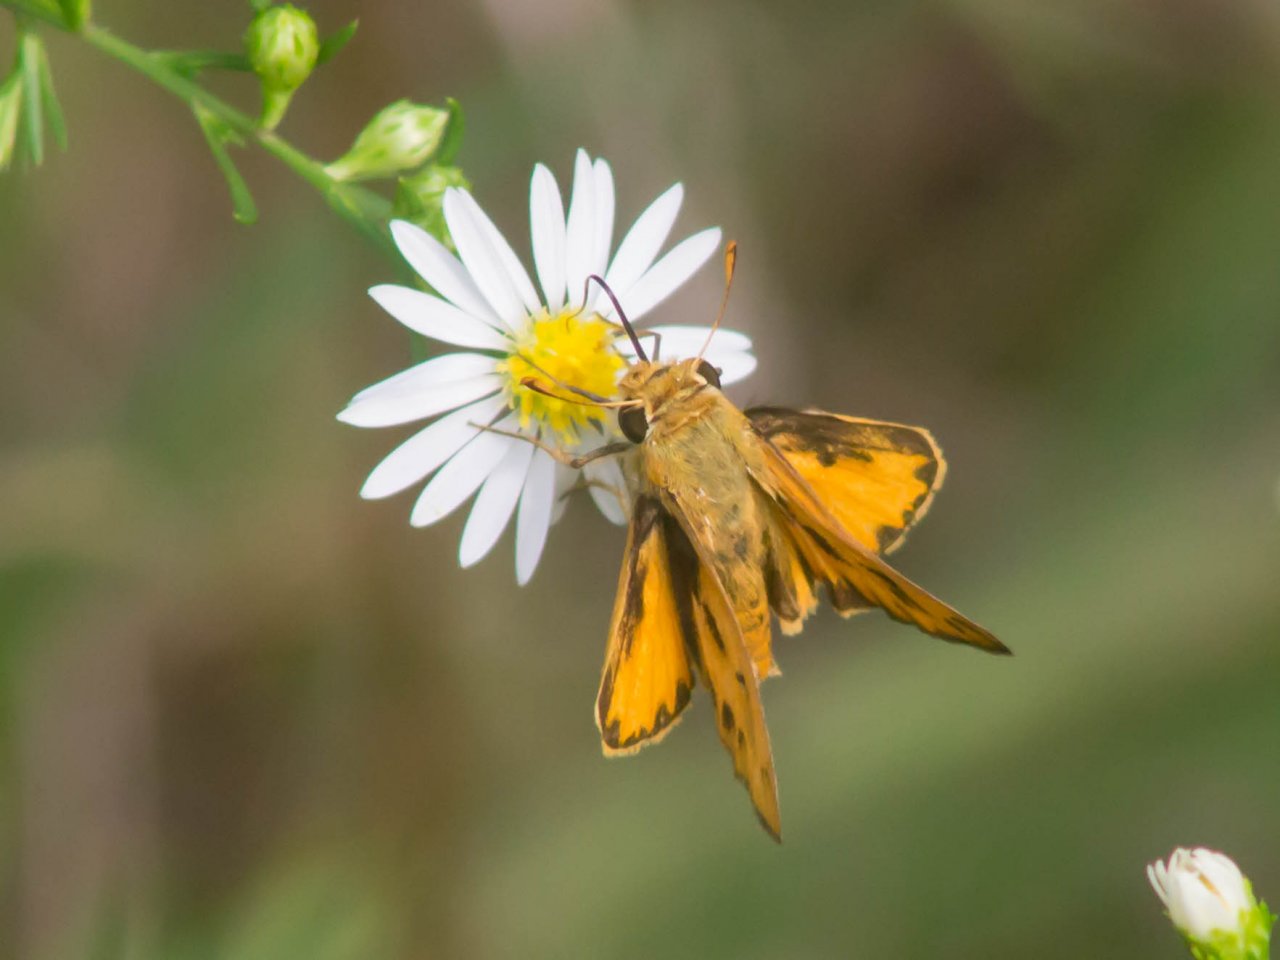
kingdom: Animalia
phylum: Arthropoda
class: Insecta
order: Lepidoptera
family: Hesperiidae
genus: Hylephila
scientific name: Hylephila phyleus
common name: Fiery Skipper
